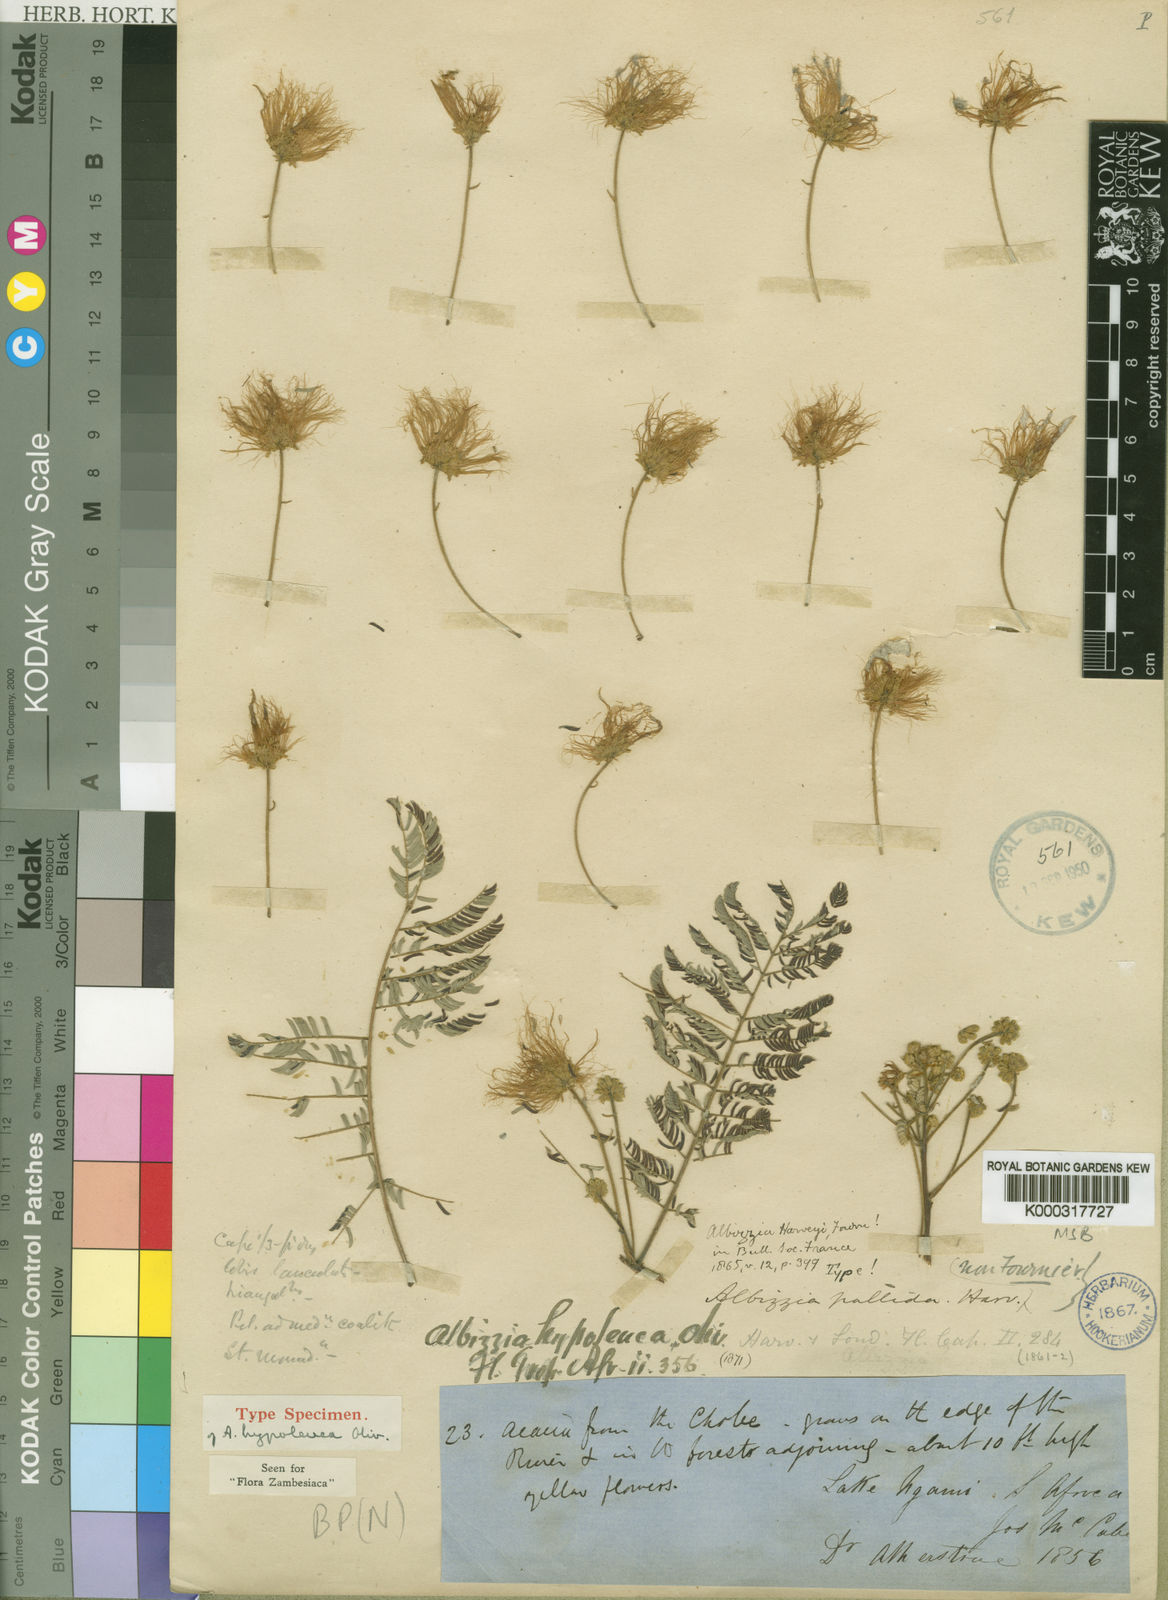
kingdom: Plantae
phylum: Tracheophyta
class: Magnoliopsida
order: Fabales
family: Fabaceae
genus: Albizia
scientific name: Albizia harveyi
